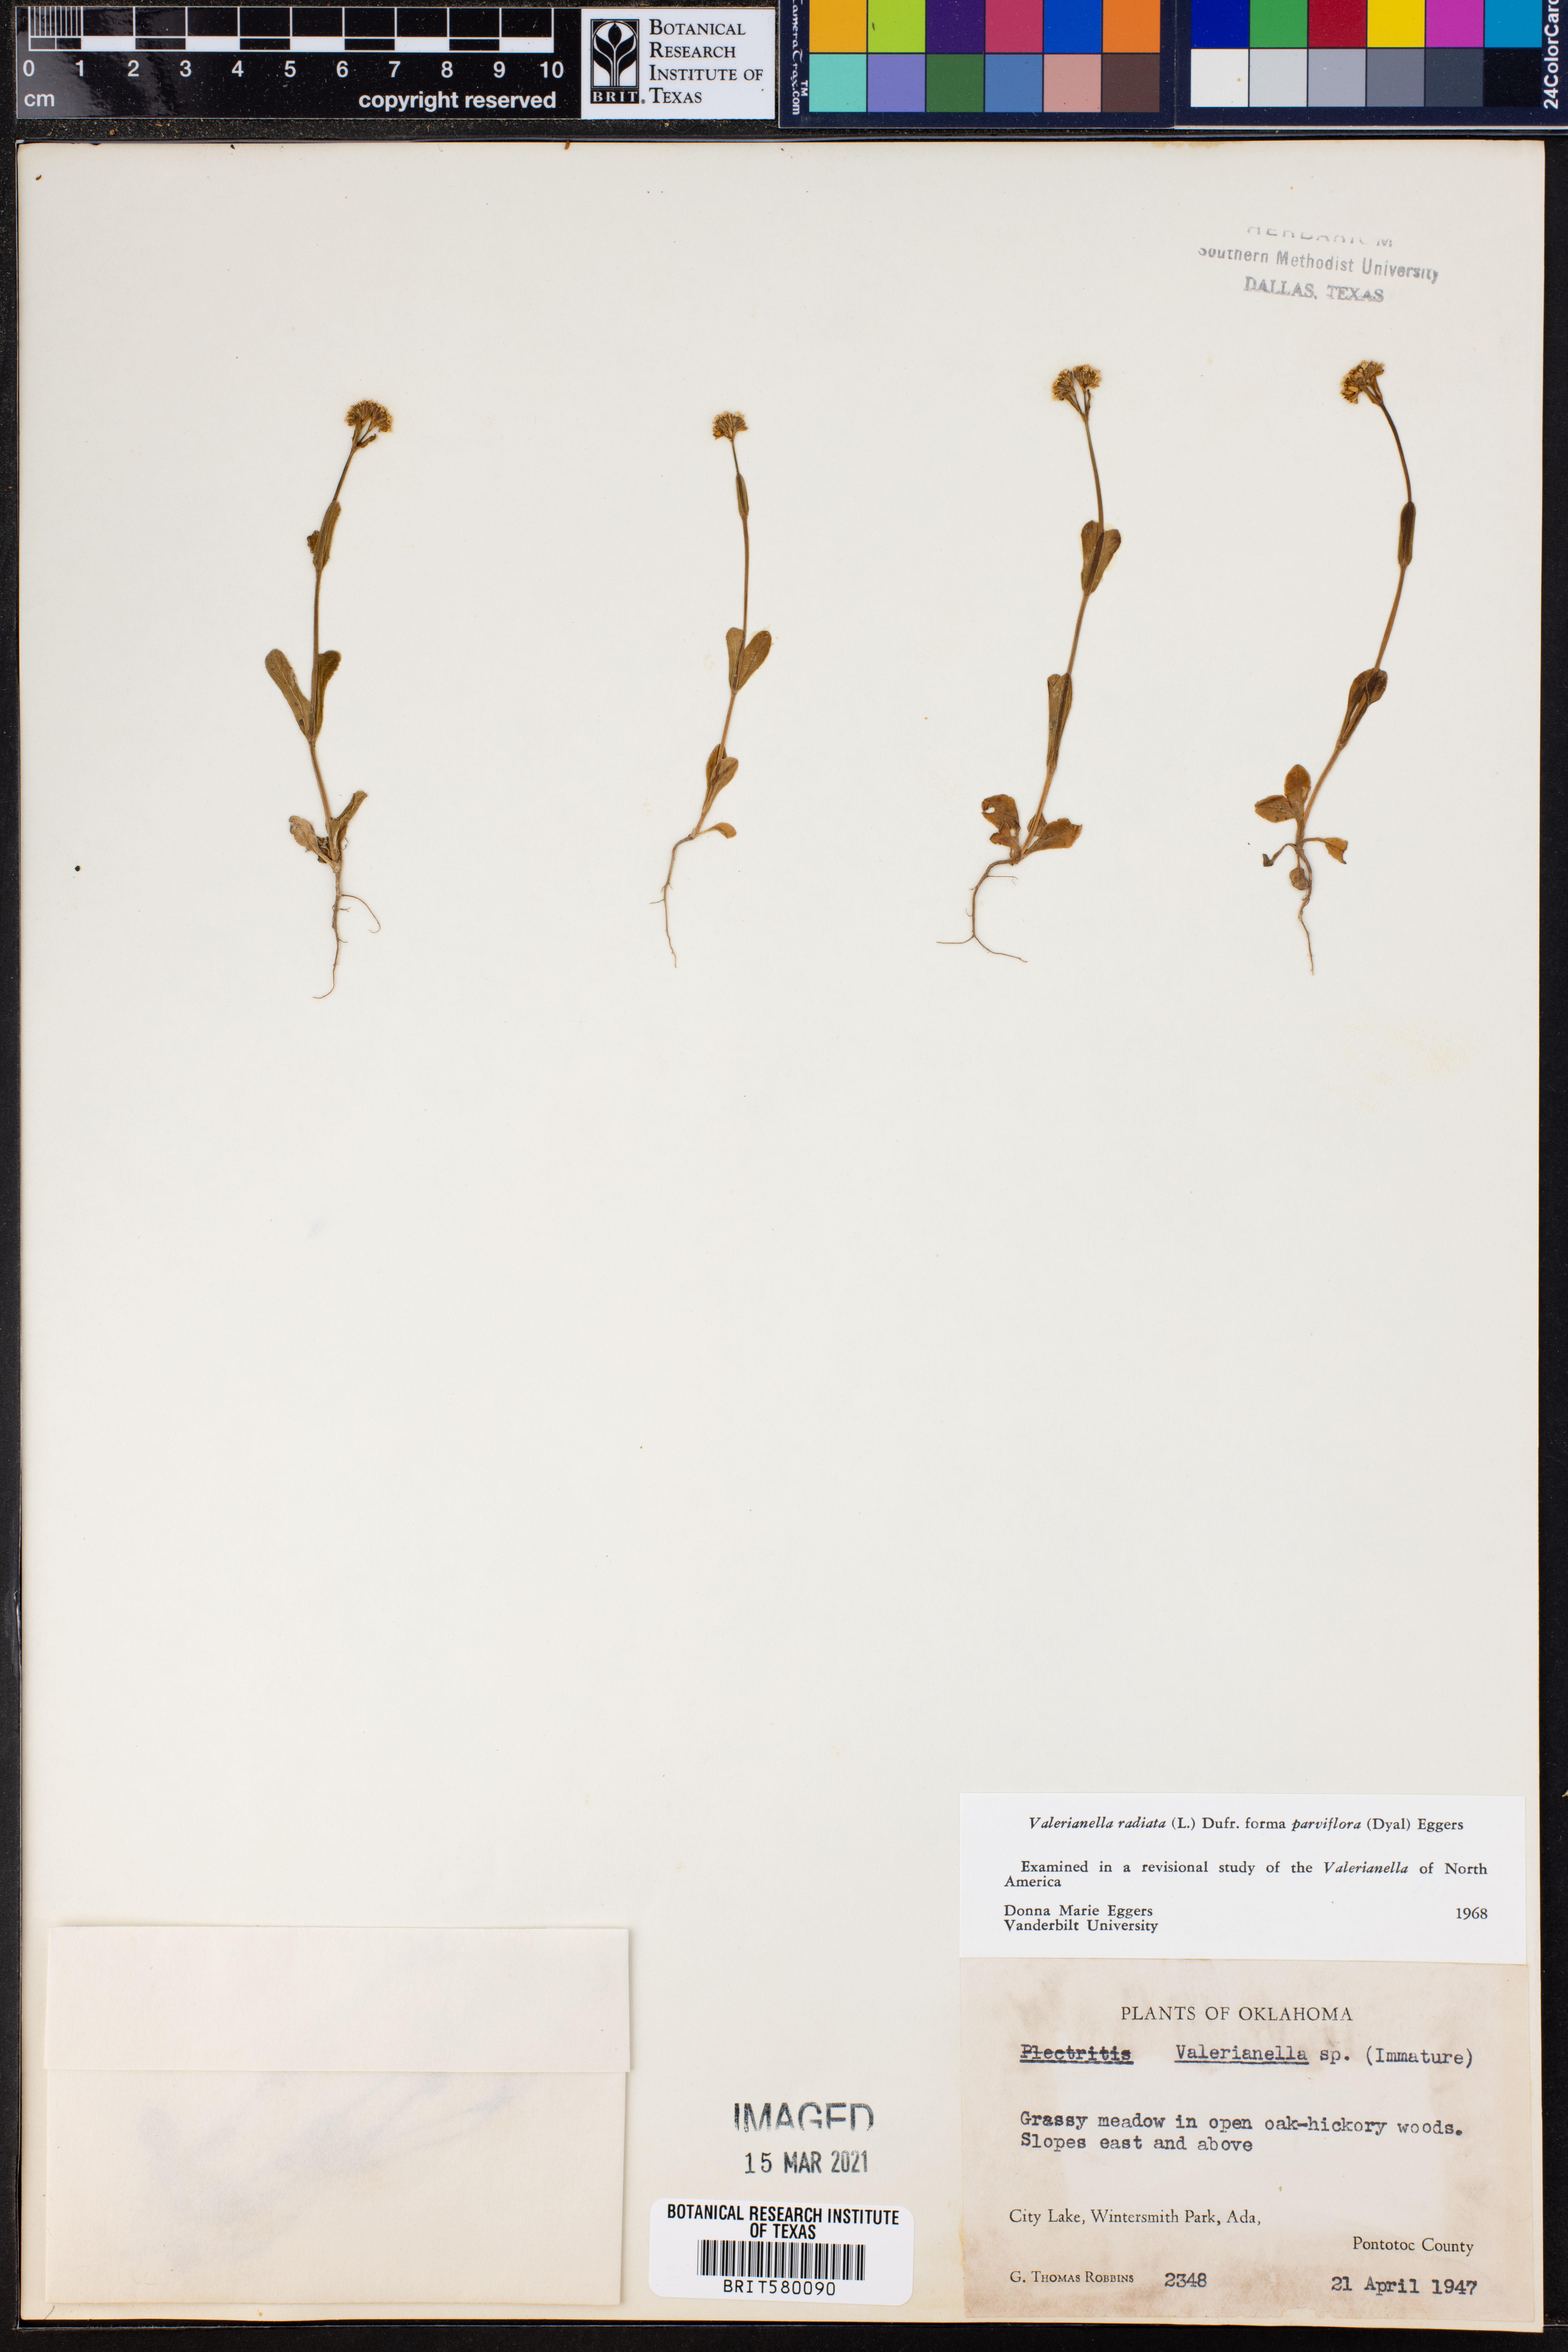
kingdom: Plantae
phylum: Tracheophyta
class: Magnoliopsida
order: Dipsacales
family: Caprifoliaceae
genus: Valerianella
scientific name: Valerianella radiata
